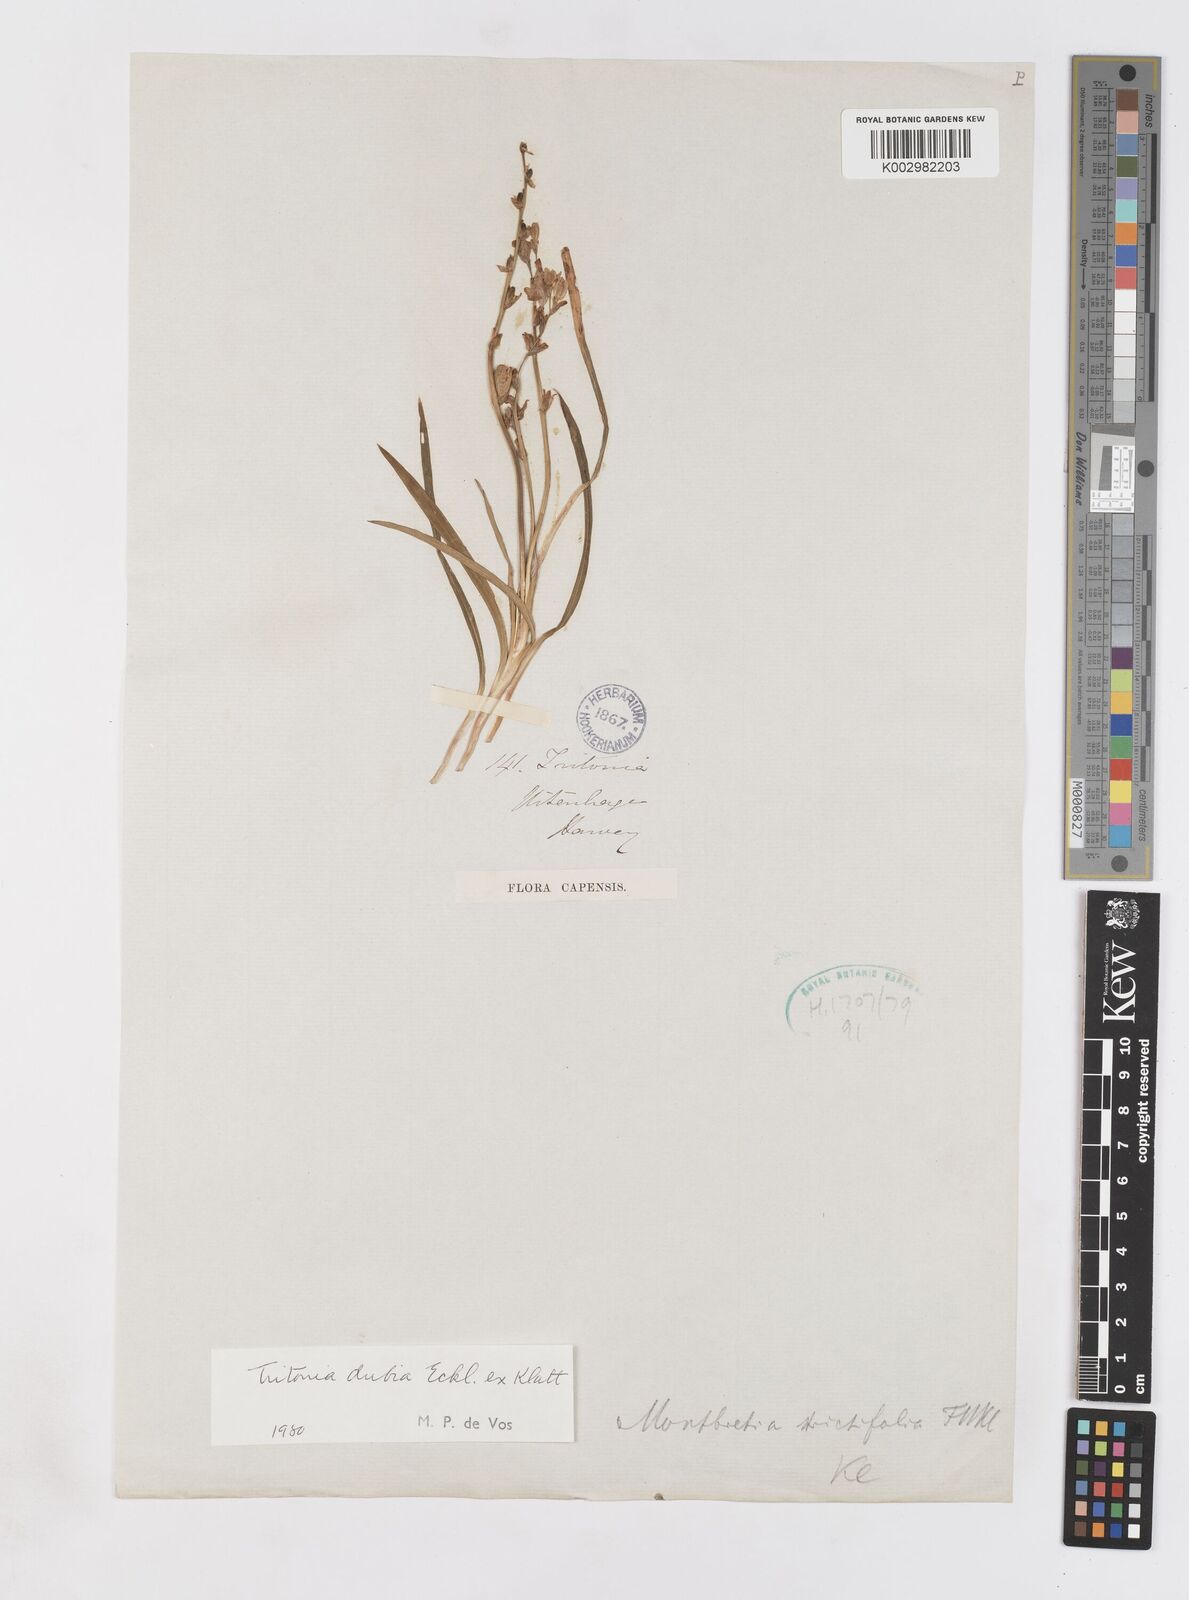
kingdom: Plantae
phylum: Tracheophyta
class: Liliopsida
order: Asparagales
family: Iridaceae
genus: Tritonia
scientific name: Tritonia dubia
